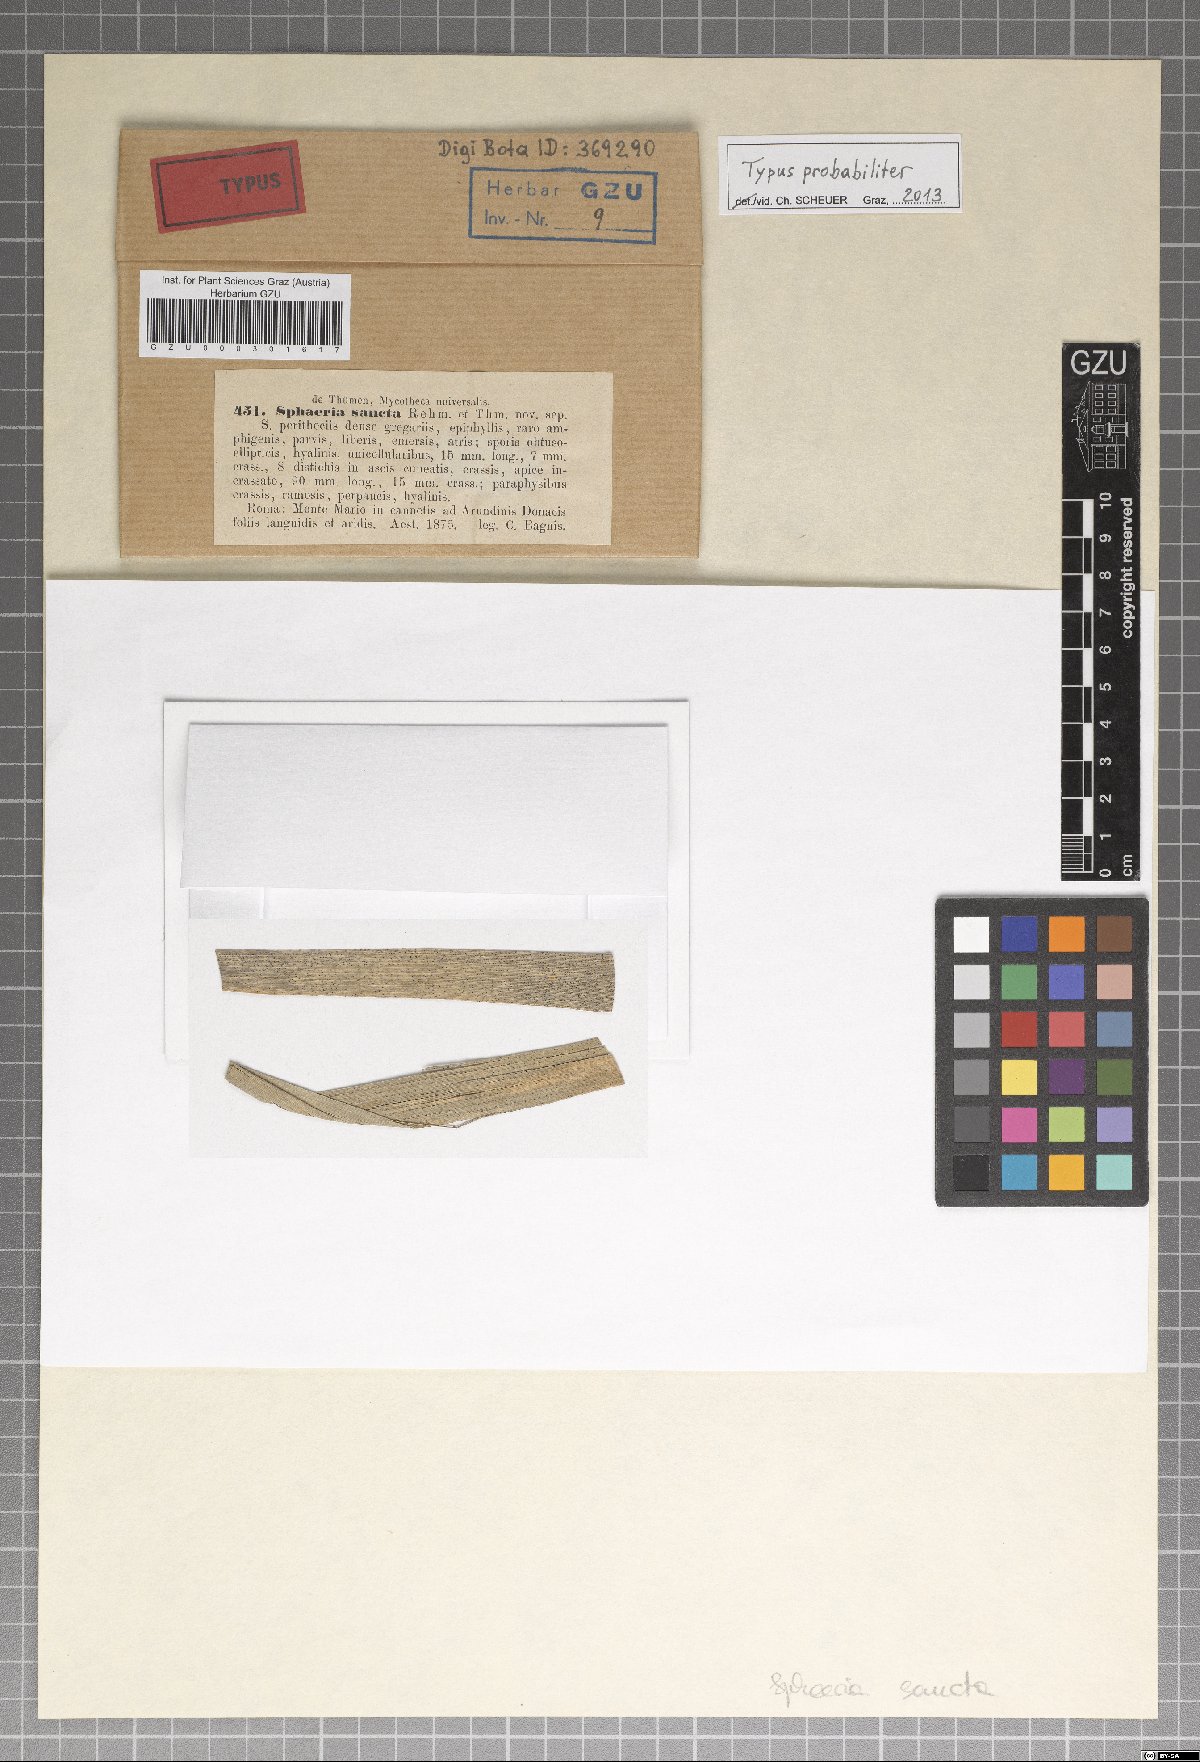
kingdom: Fungi
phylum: Ascomycota
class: Sordariomycetes
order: Xylariales
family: Xylariaceae
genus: Sphaeria
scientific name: Sphaeria
